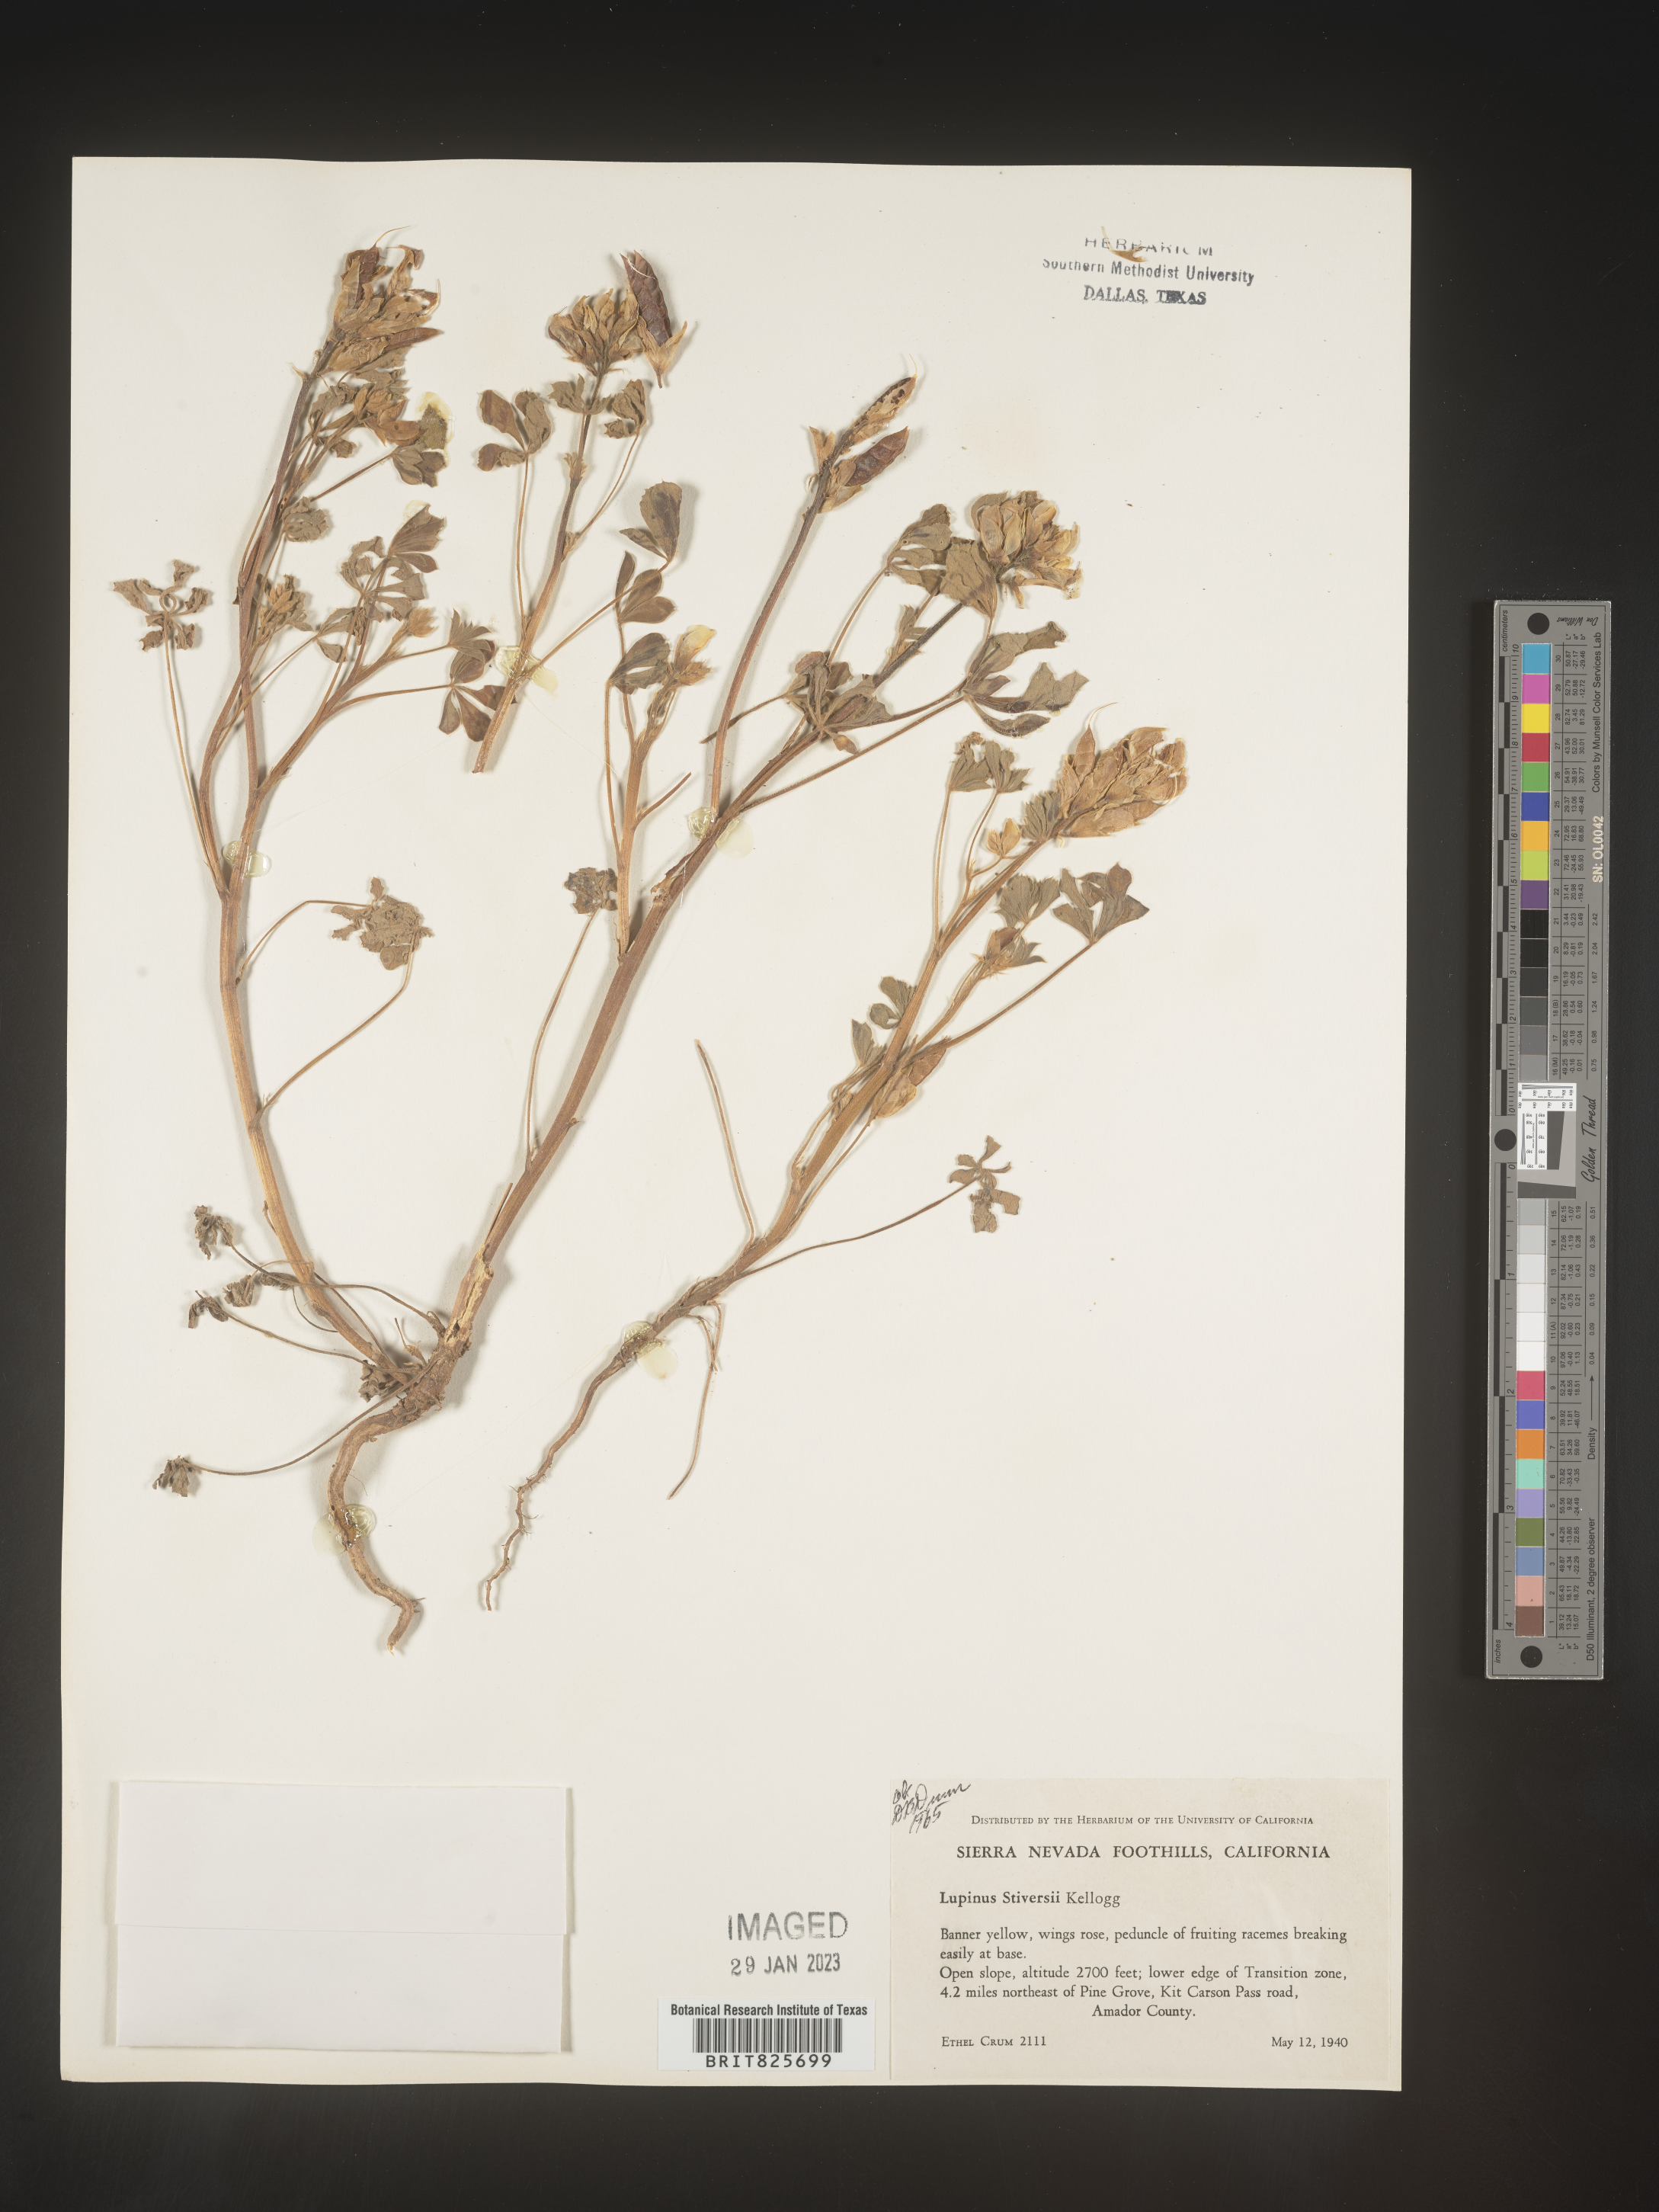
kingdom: Plantae
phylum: Tracheophyta
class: Magnoliopsida
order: Fabales
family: Fabaceae
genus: Lupinus
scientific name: Lupinus
